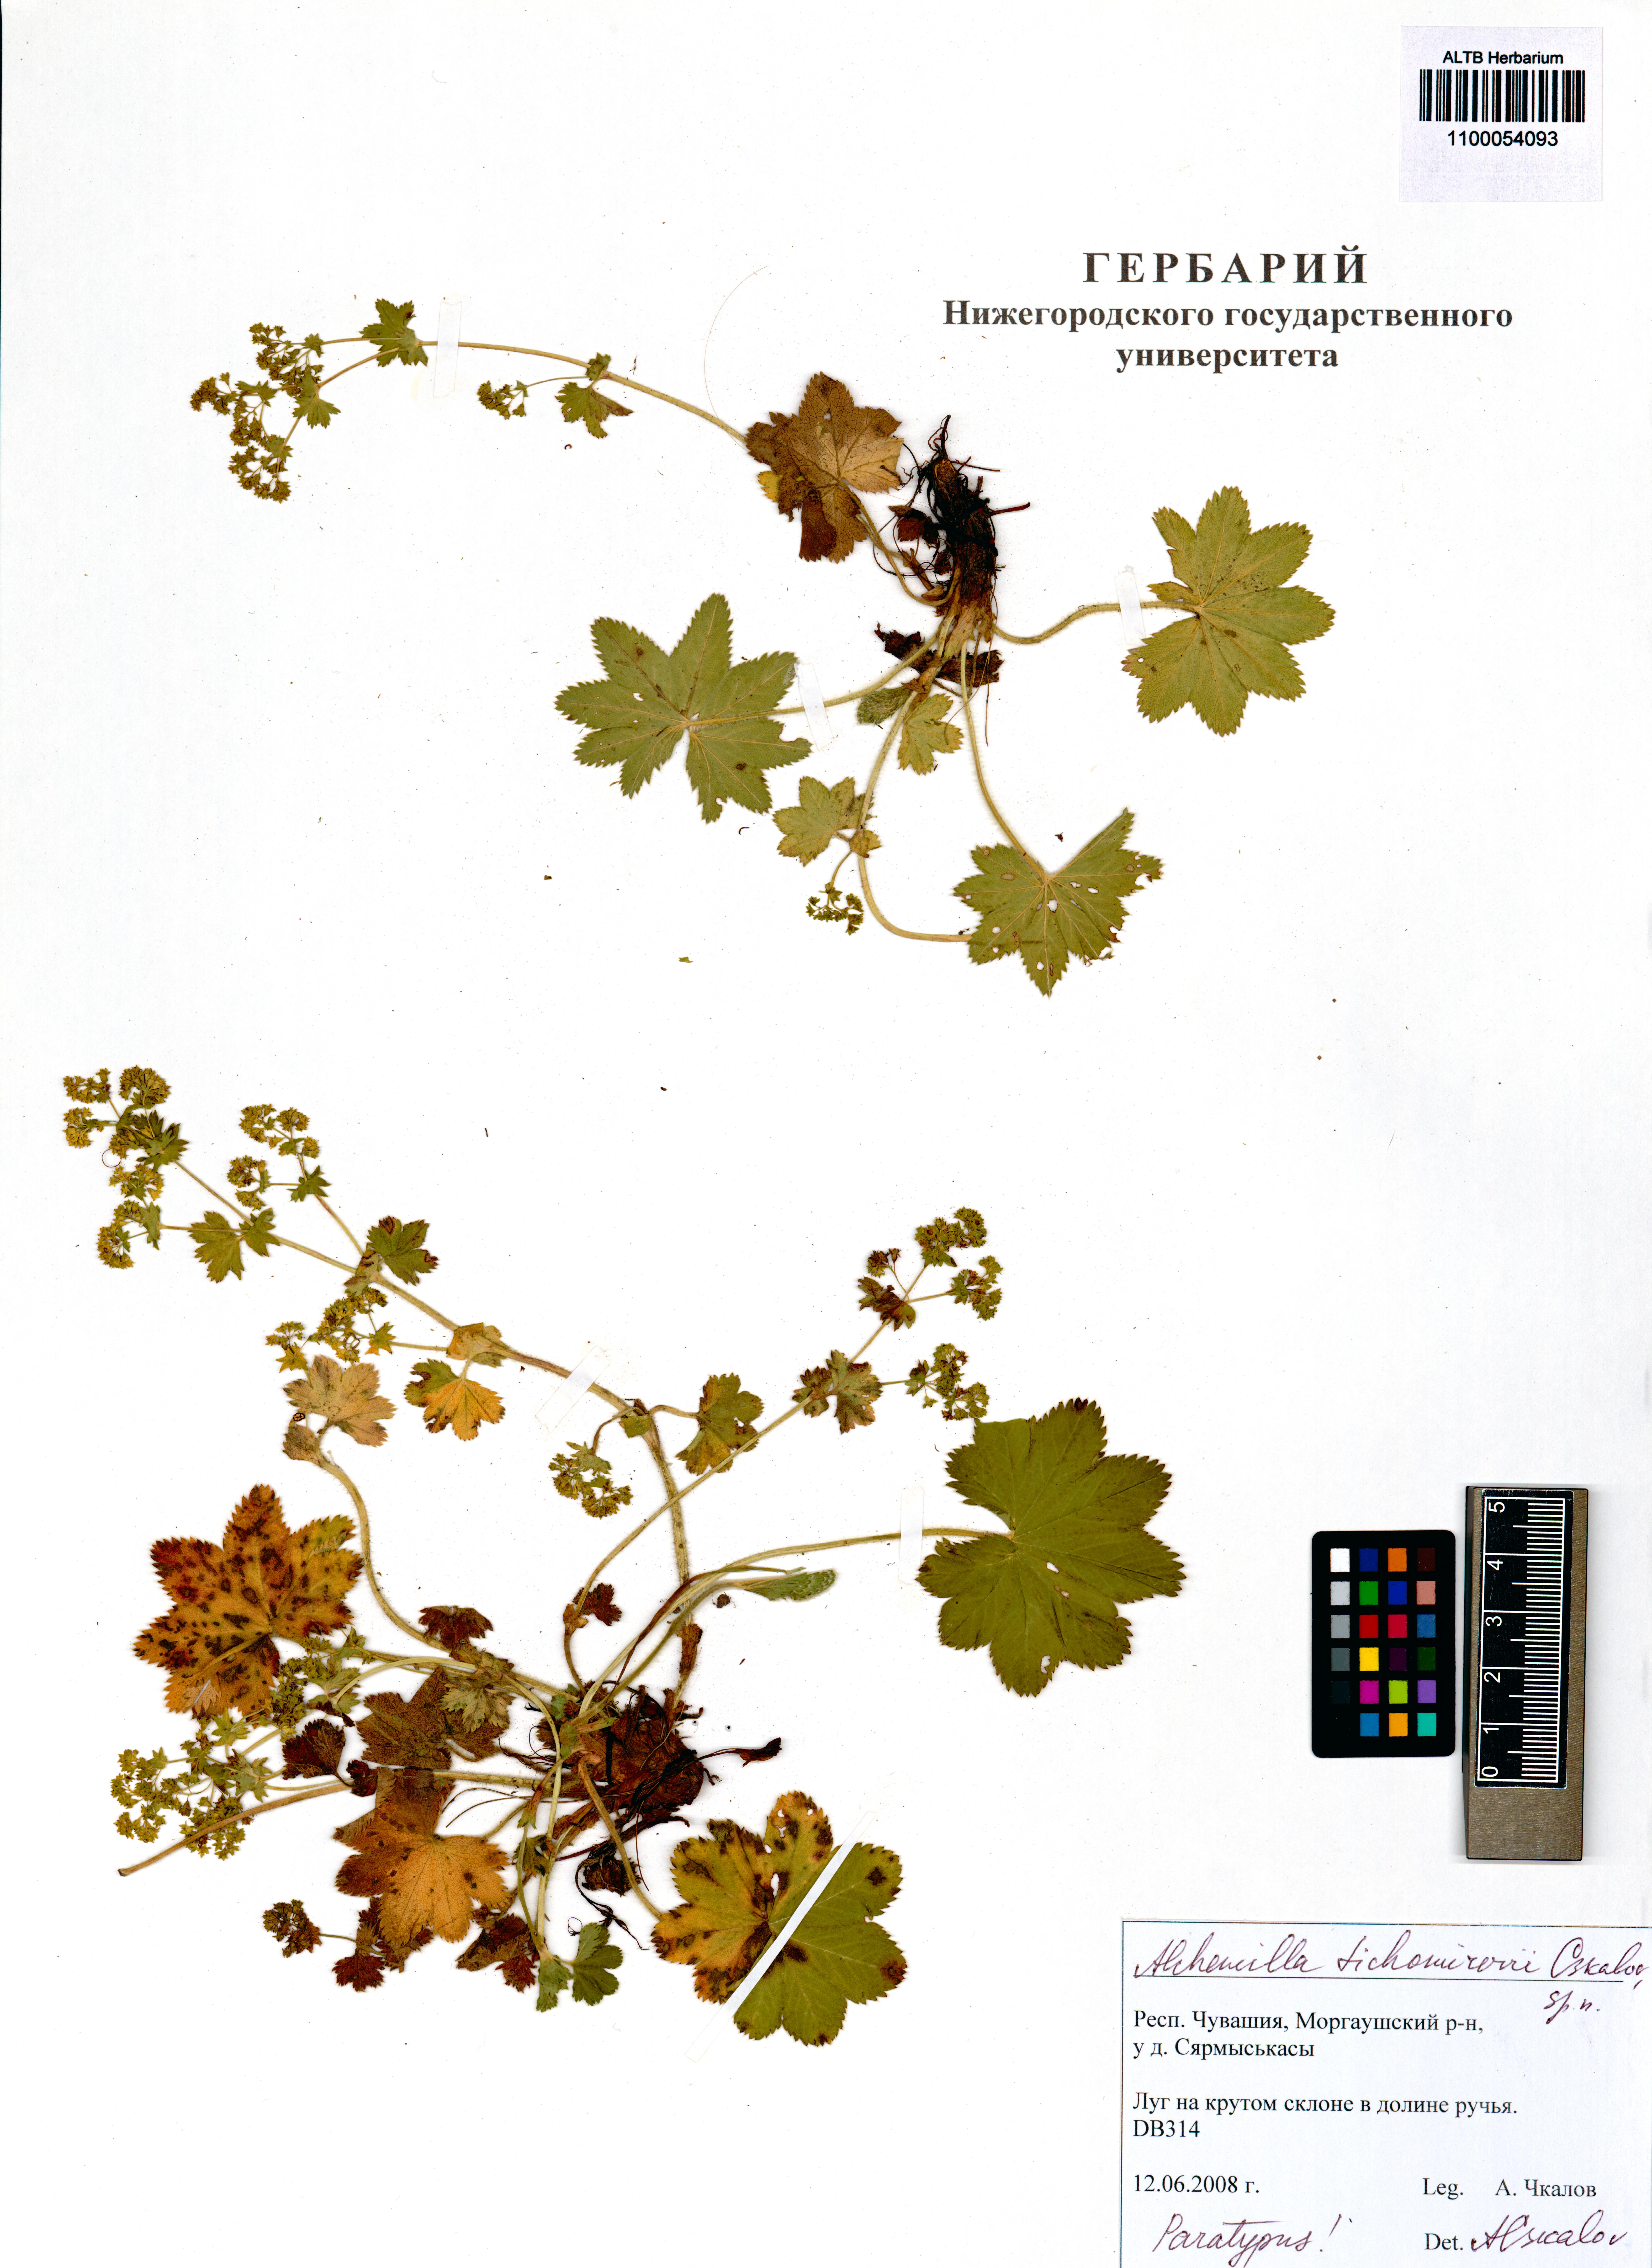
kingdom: Plantae
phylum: Tracheophyta
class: Magnoliopsida
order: Rosales
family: Rosaceae
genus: Alchemilla
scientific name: Alchemilla tichomirovii
